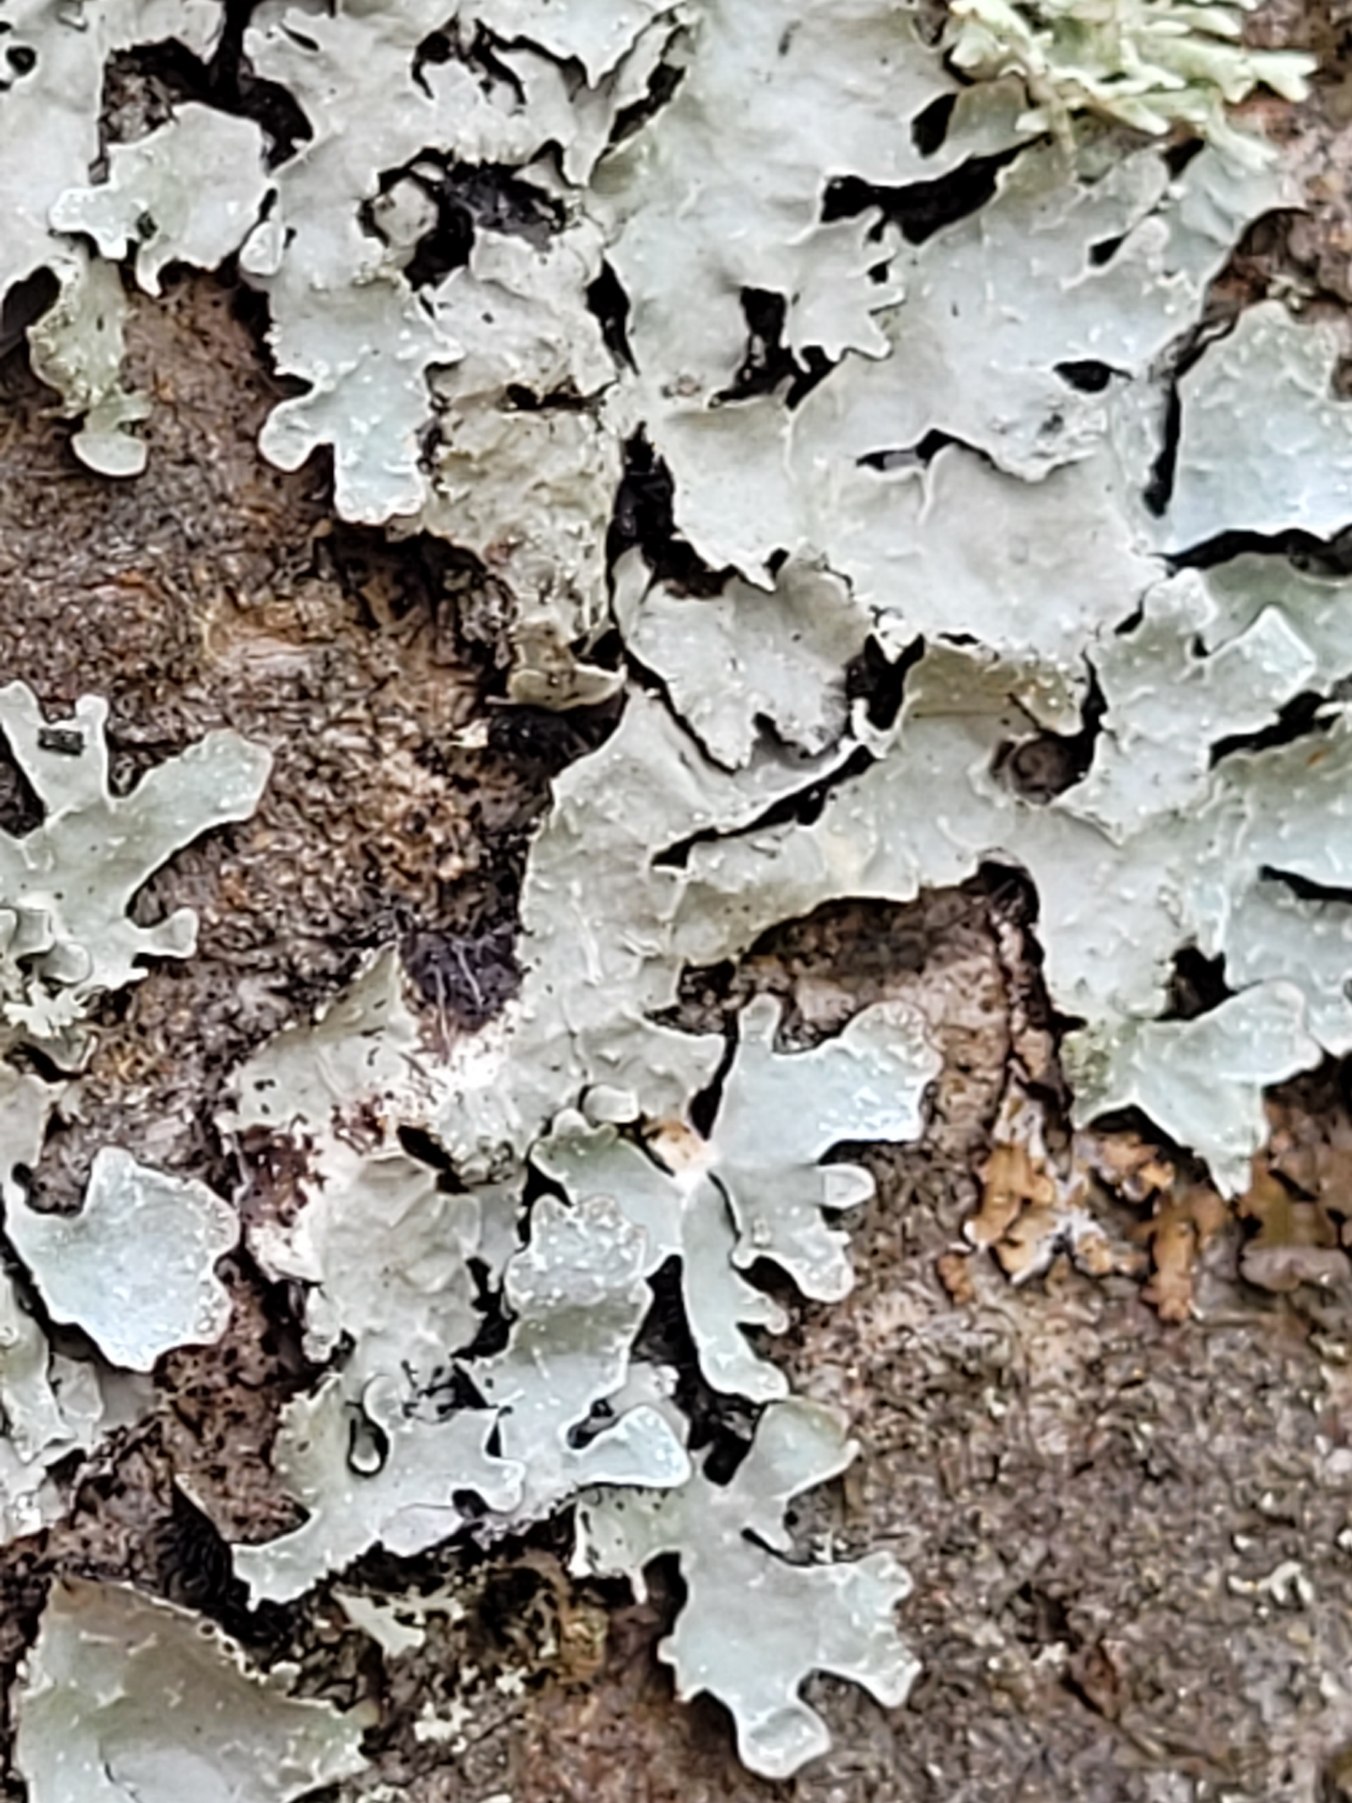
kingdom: Fungi
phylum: Ascomycota
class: Lecanoromycetes
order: Lecanorales
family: Parmeliaceae
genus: Parmelia
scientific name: Parmelia sulcata
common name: Rynket skållav
